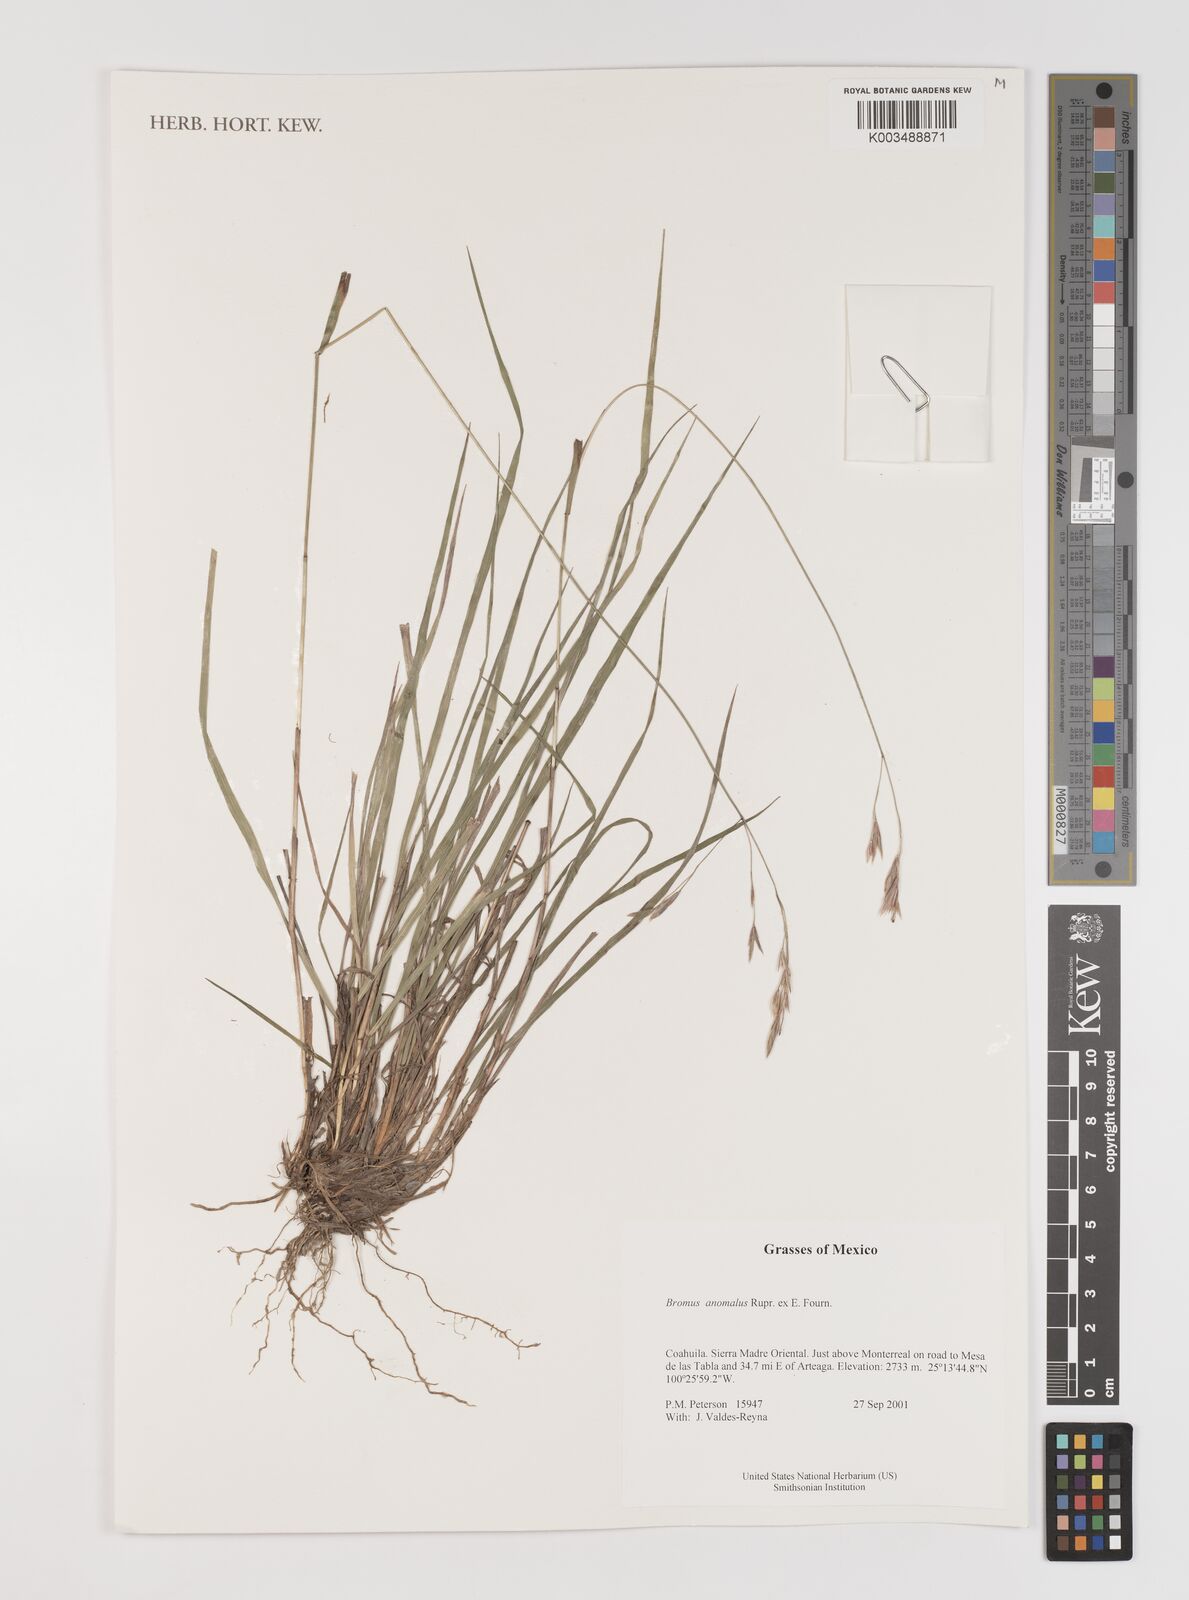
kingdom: Plantae
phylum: Tracheophyta
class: Liliopsida
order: Poales
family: Poaceae
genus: Bromus
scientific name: Bromus anomalus
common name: Nodding brome
